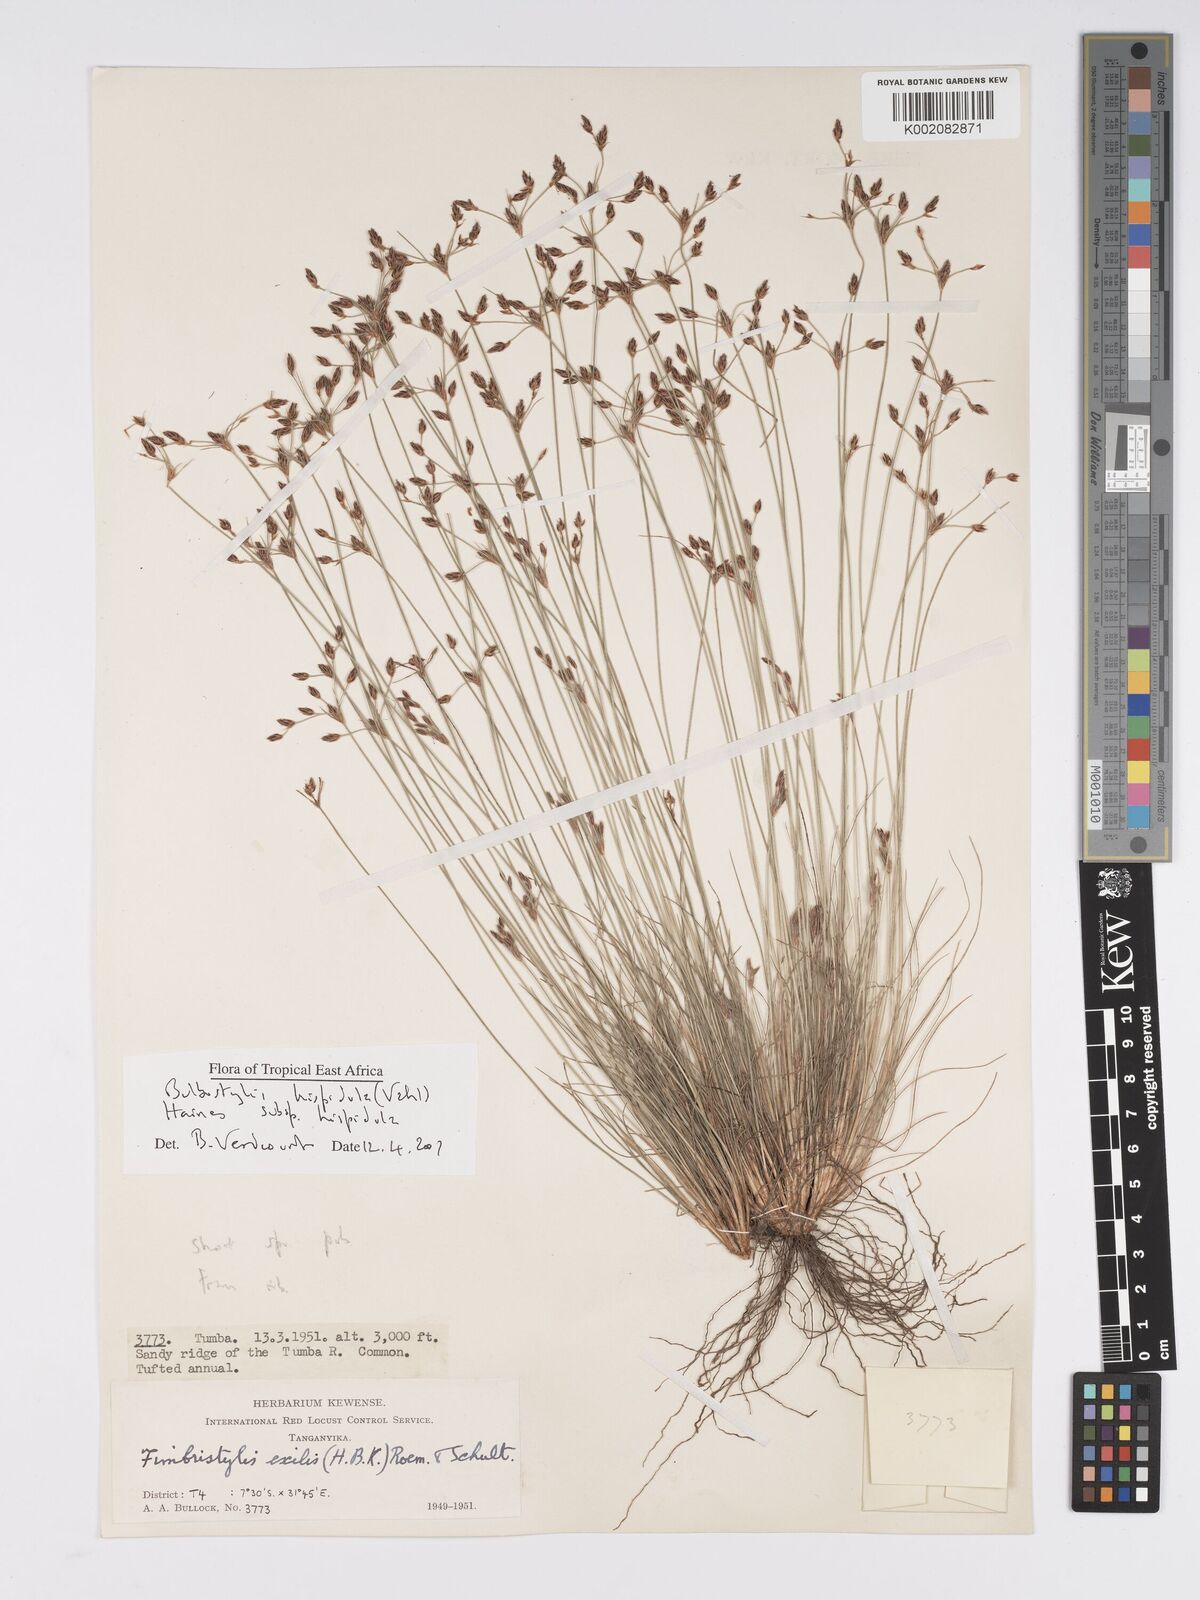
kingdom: Plantae
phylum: Tracheophyta
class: Liliopsida
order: Poales
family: Cyperaceae
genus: Bulbostylis
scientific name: Bulbostylis hispidula
